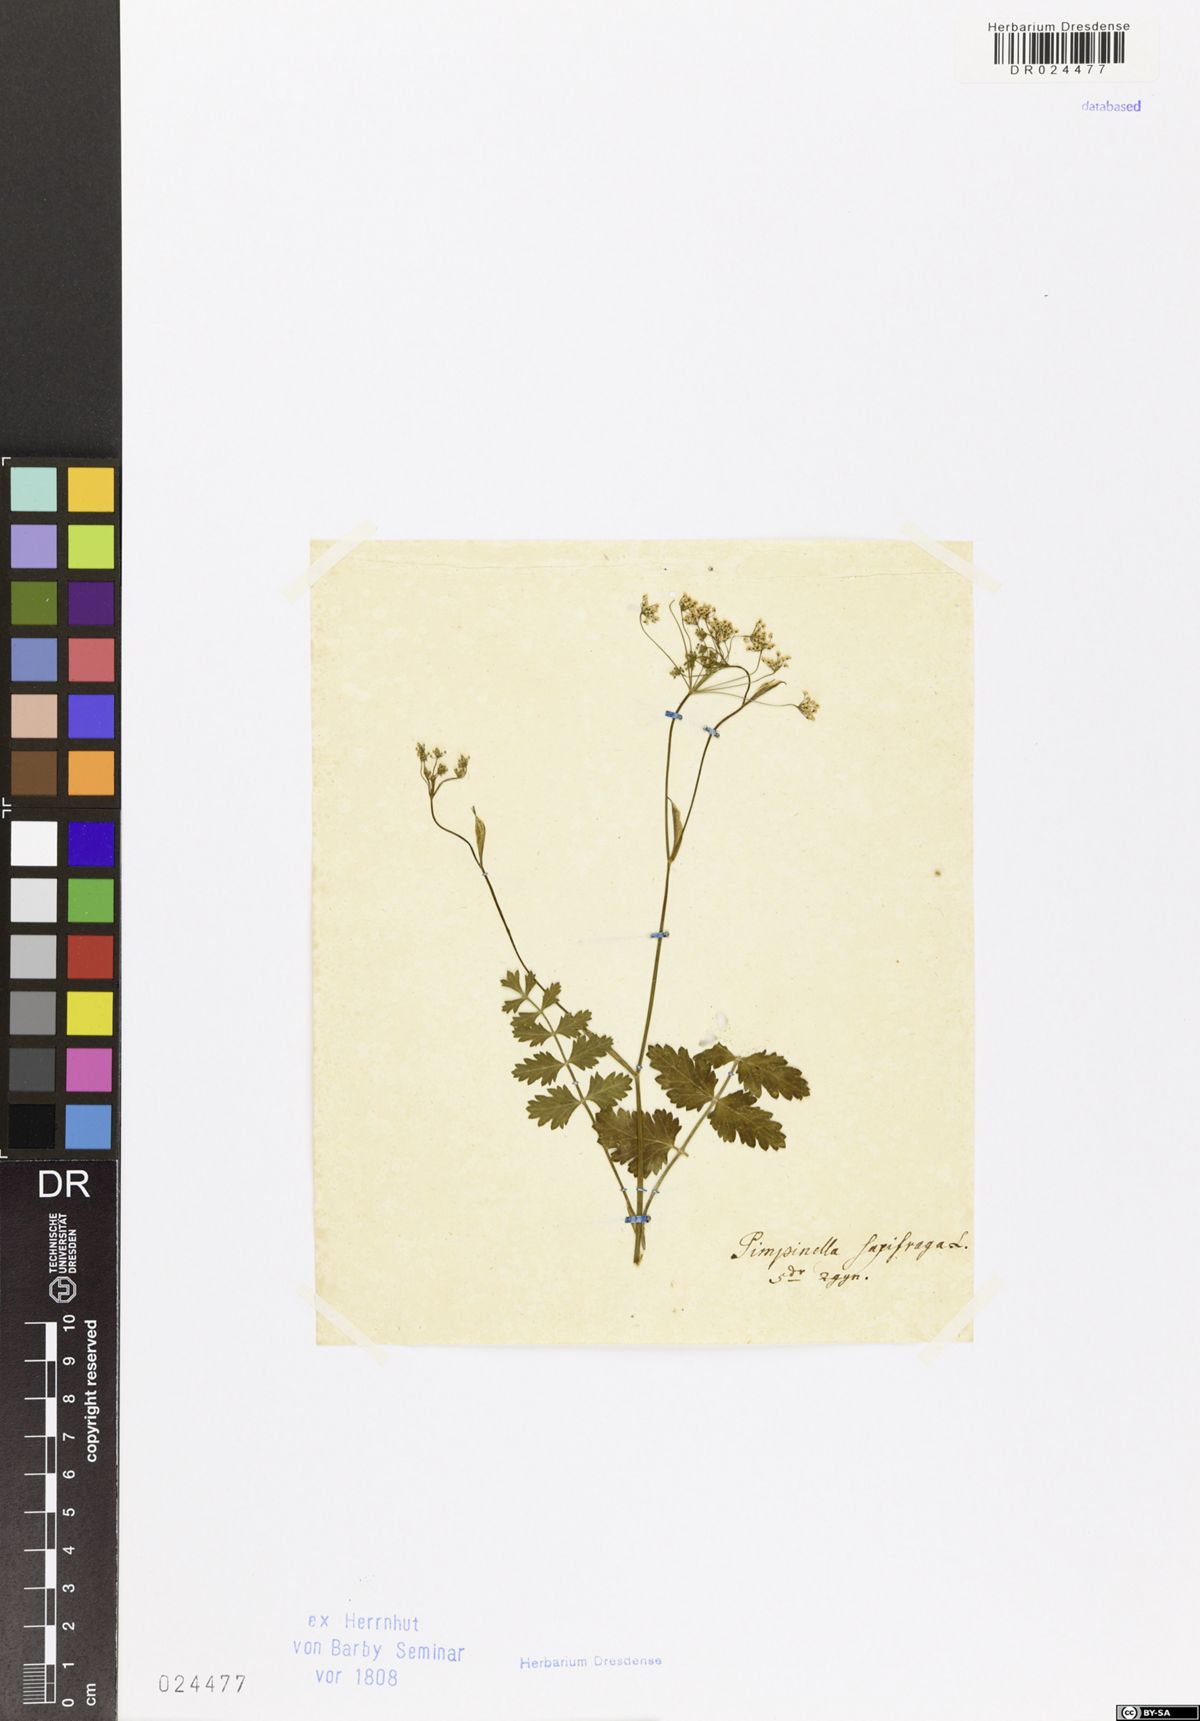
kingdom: Plantae
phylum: Tracheophyta
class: Magnoliopsida
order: Apiales
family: Apiaceae
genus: Pimpinella
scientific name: Pimpinella saxifraga
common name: Burnet-saxifrage
